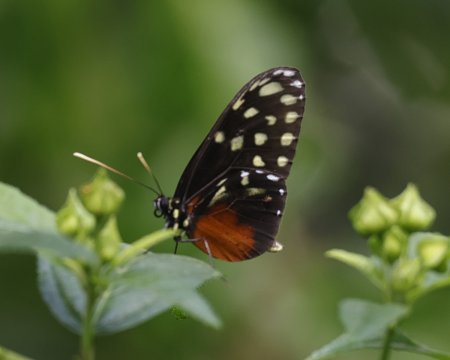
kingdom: Animalia
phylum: Arthropoda
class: Insecta
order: Lepidoptera
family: Nymphalidae
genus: Callithomia
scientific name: Callithomia hezia
